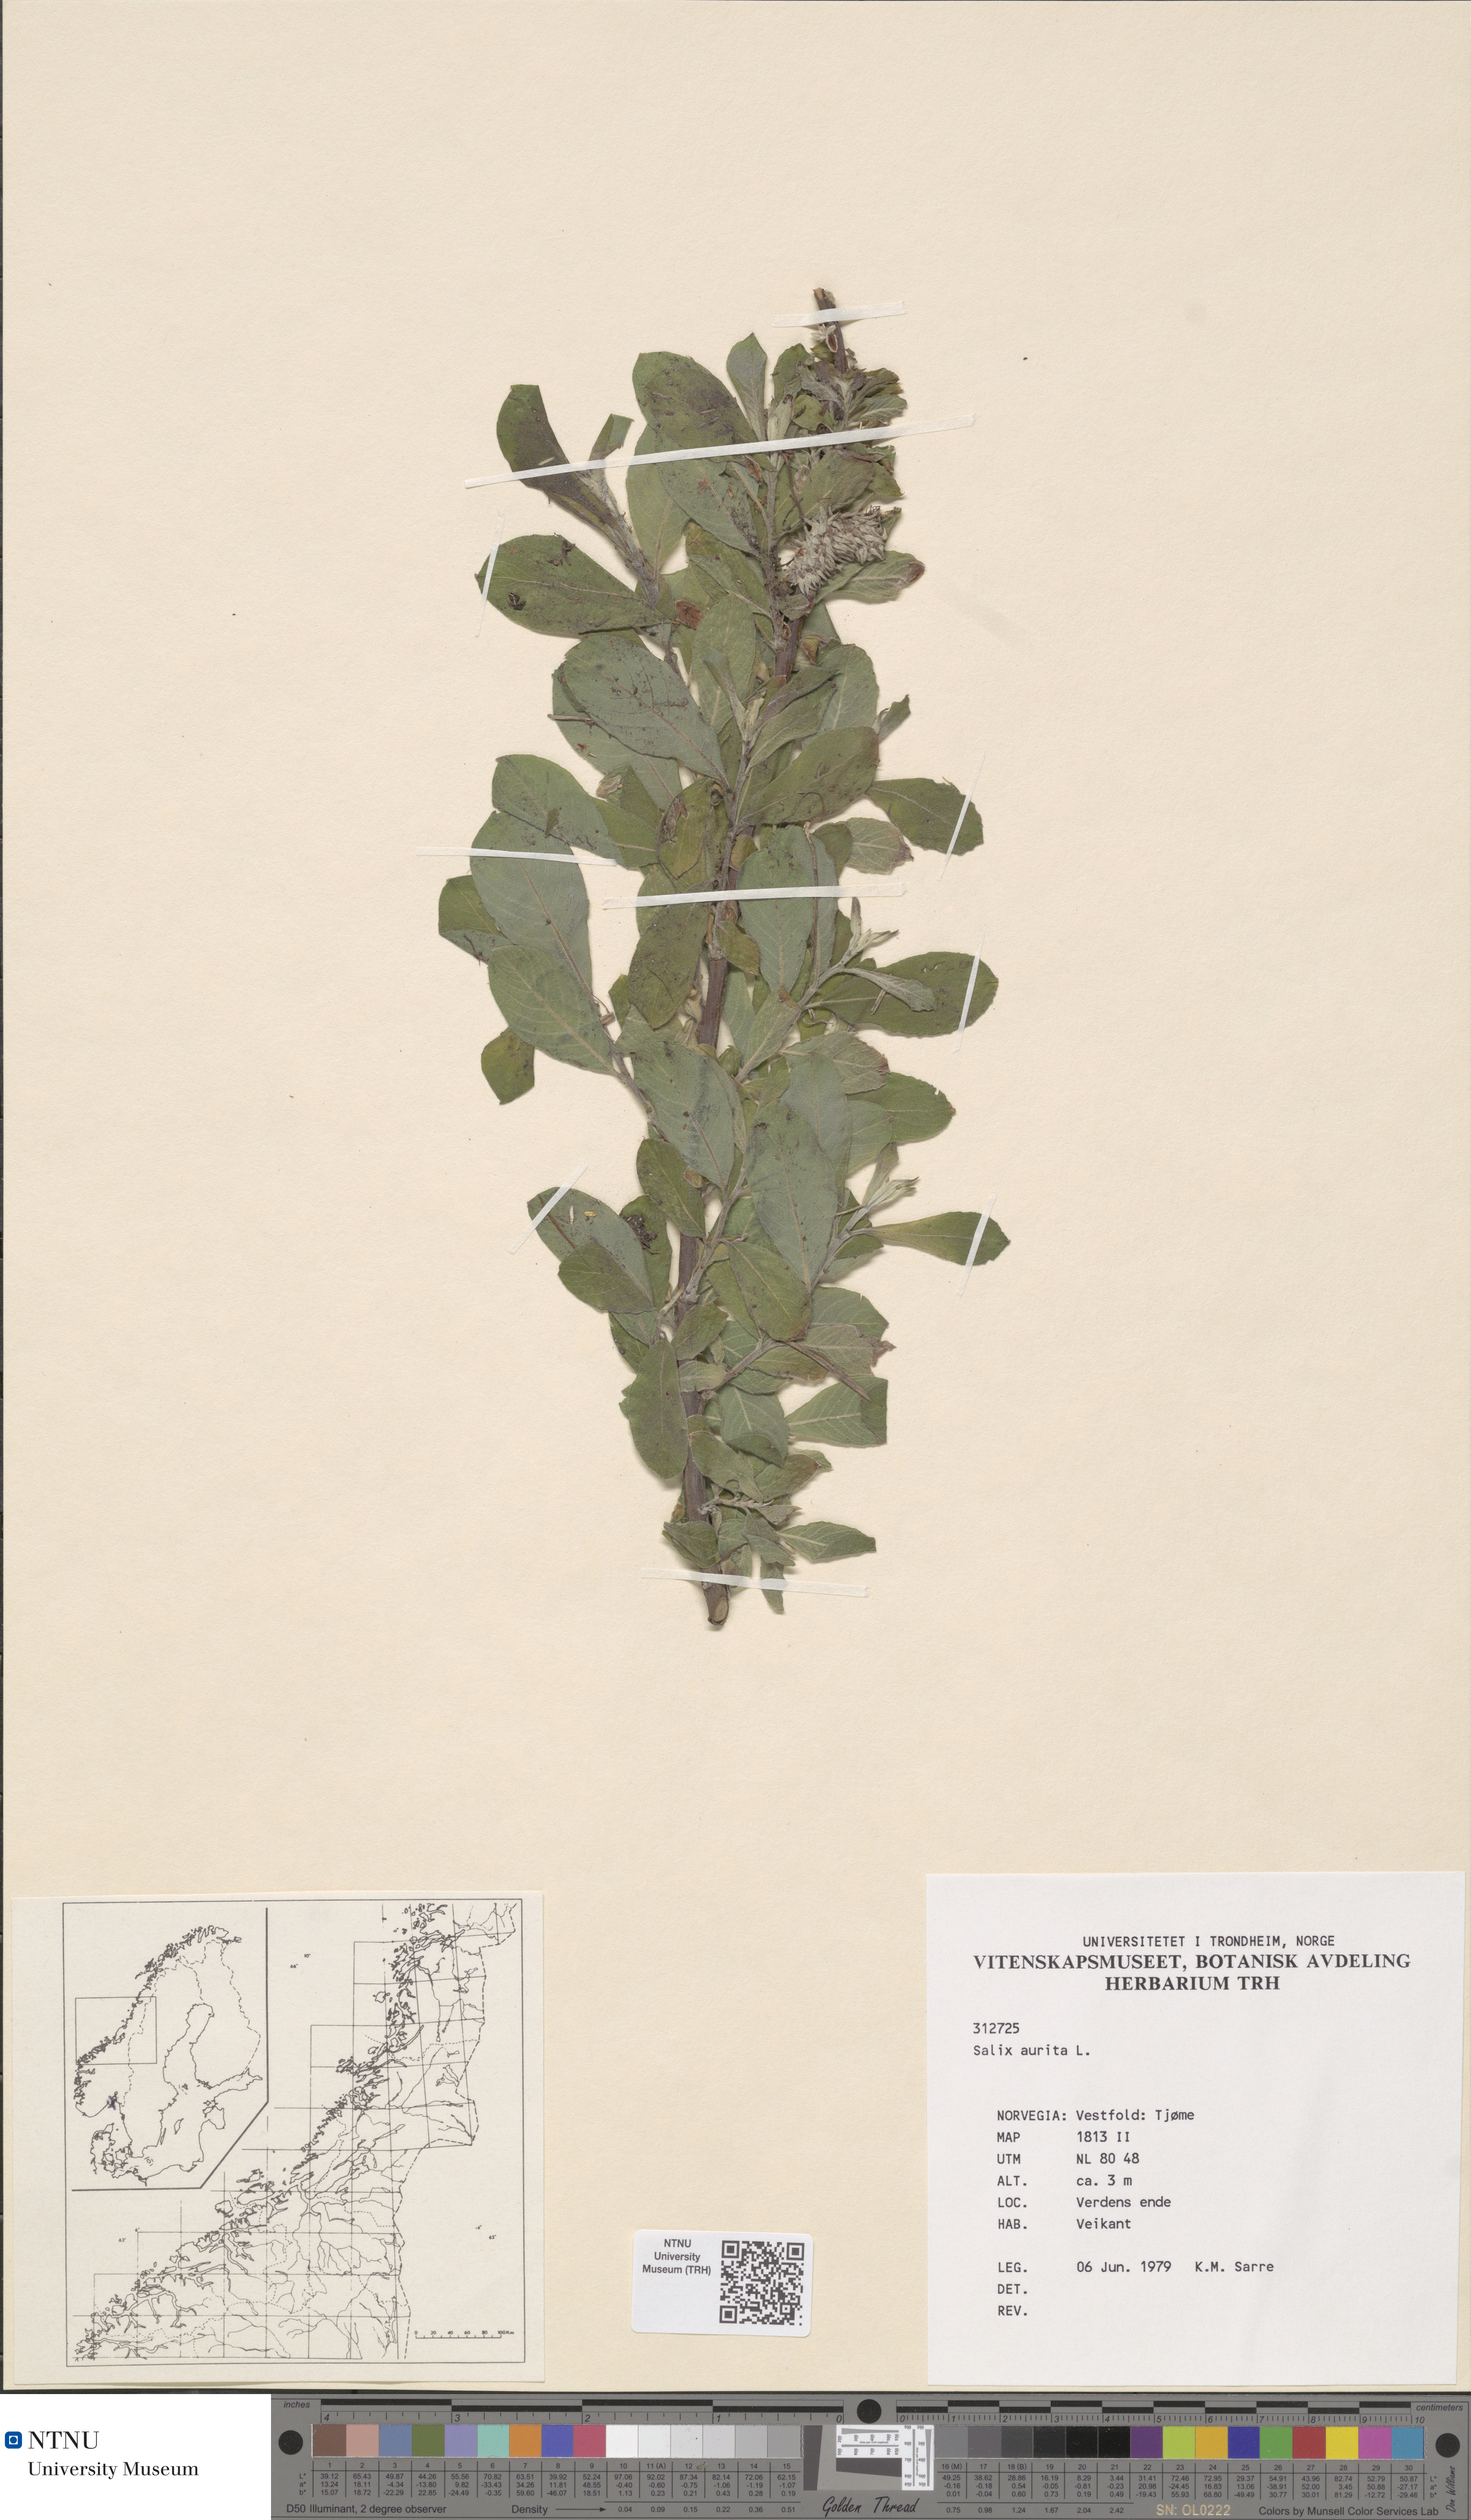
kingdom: Plantae
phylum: Tracheophyta
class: Magnoliopsida
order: Malpighiales
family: Salicaceae
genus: Salix
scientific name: Salix aurita
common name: Eared willow
